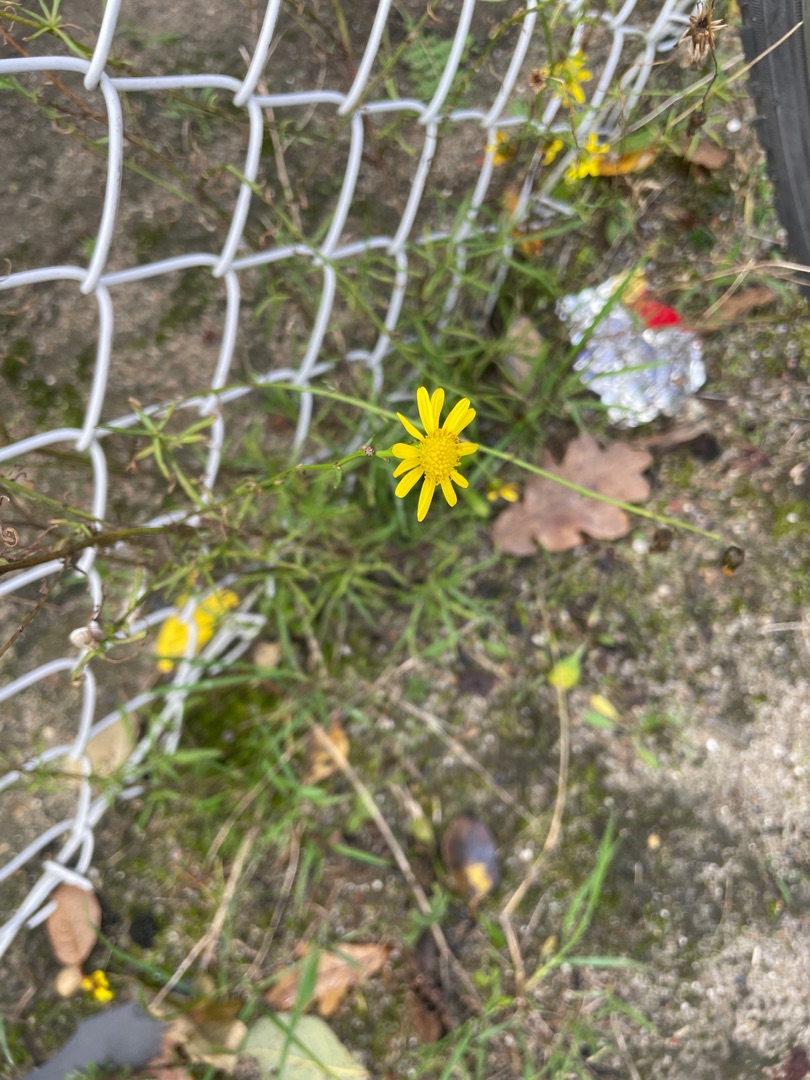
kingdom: Plantae
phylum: Tracheophyta
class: Magnoliopsida
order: Asterales
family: Asteraceae
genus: Senecio
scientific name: Senecio inaequidens
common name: Smalbladet brandbæger
